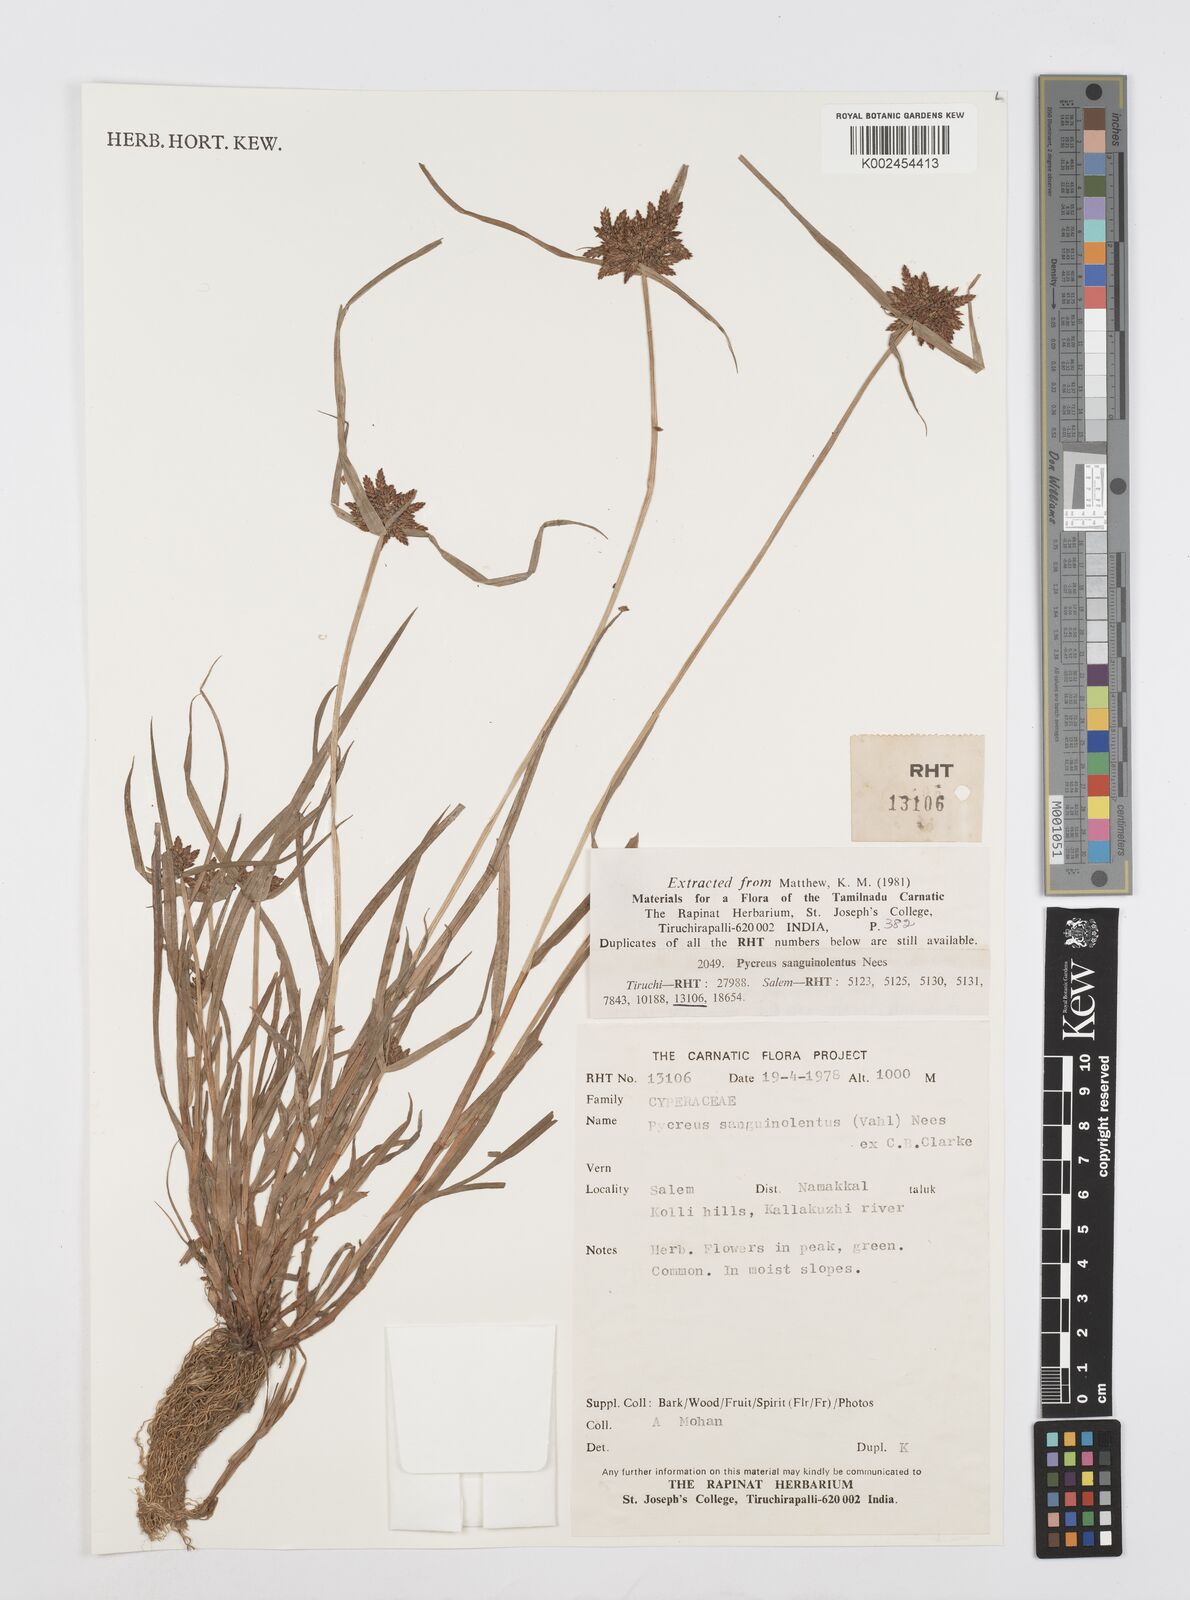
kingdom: Plantae
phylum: Tracheophyta
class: Liliopsida
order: Poales
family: Cyperaceae
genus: Cyperus
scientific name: Cyperus sanguinolentus
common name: Purpleglume flatsedge
